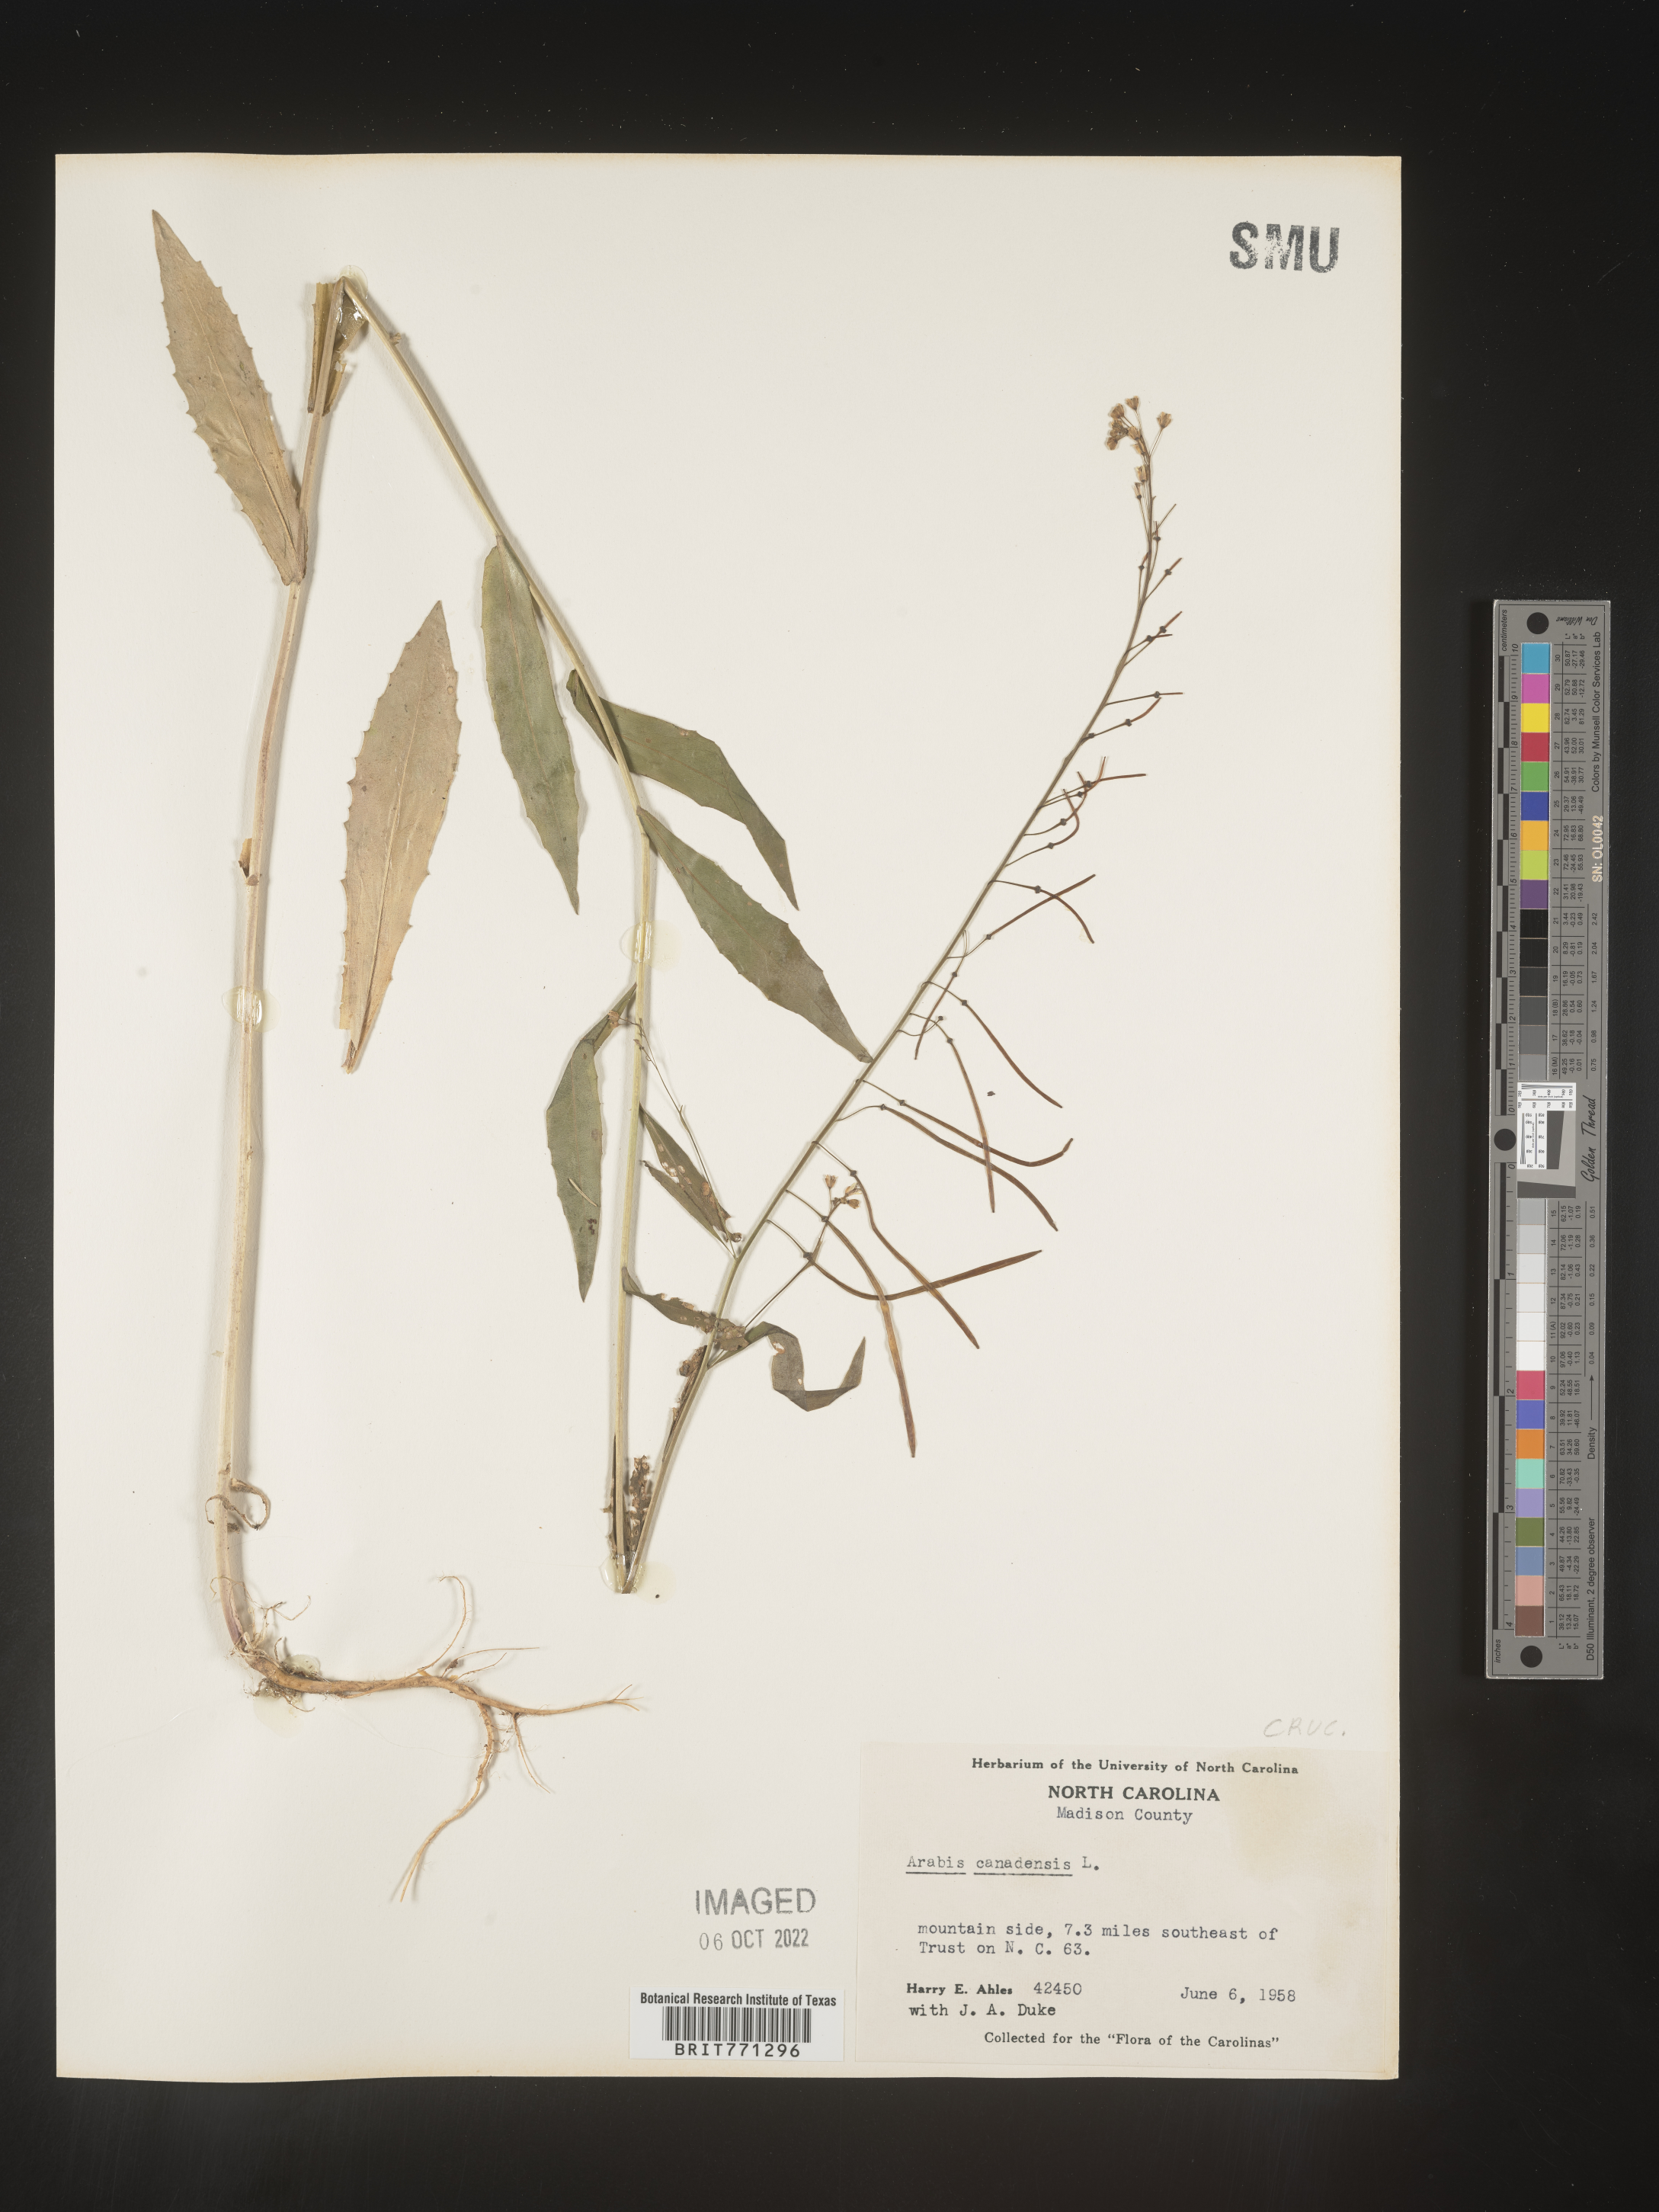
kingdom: Plantae
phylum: Tracheophyta
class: Magnoliopsida
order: Brassicales
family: Brassicaceae
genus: Borodinia
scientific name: Borodinia canadensis
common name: Sicklepod
